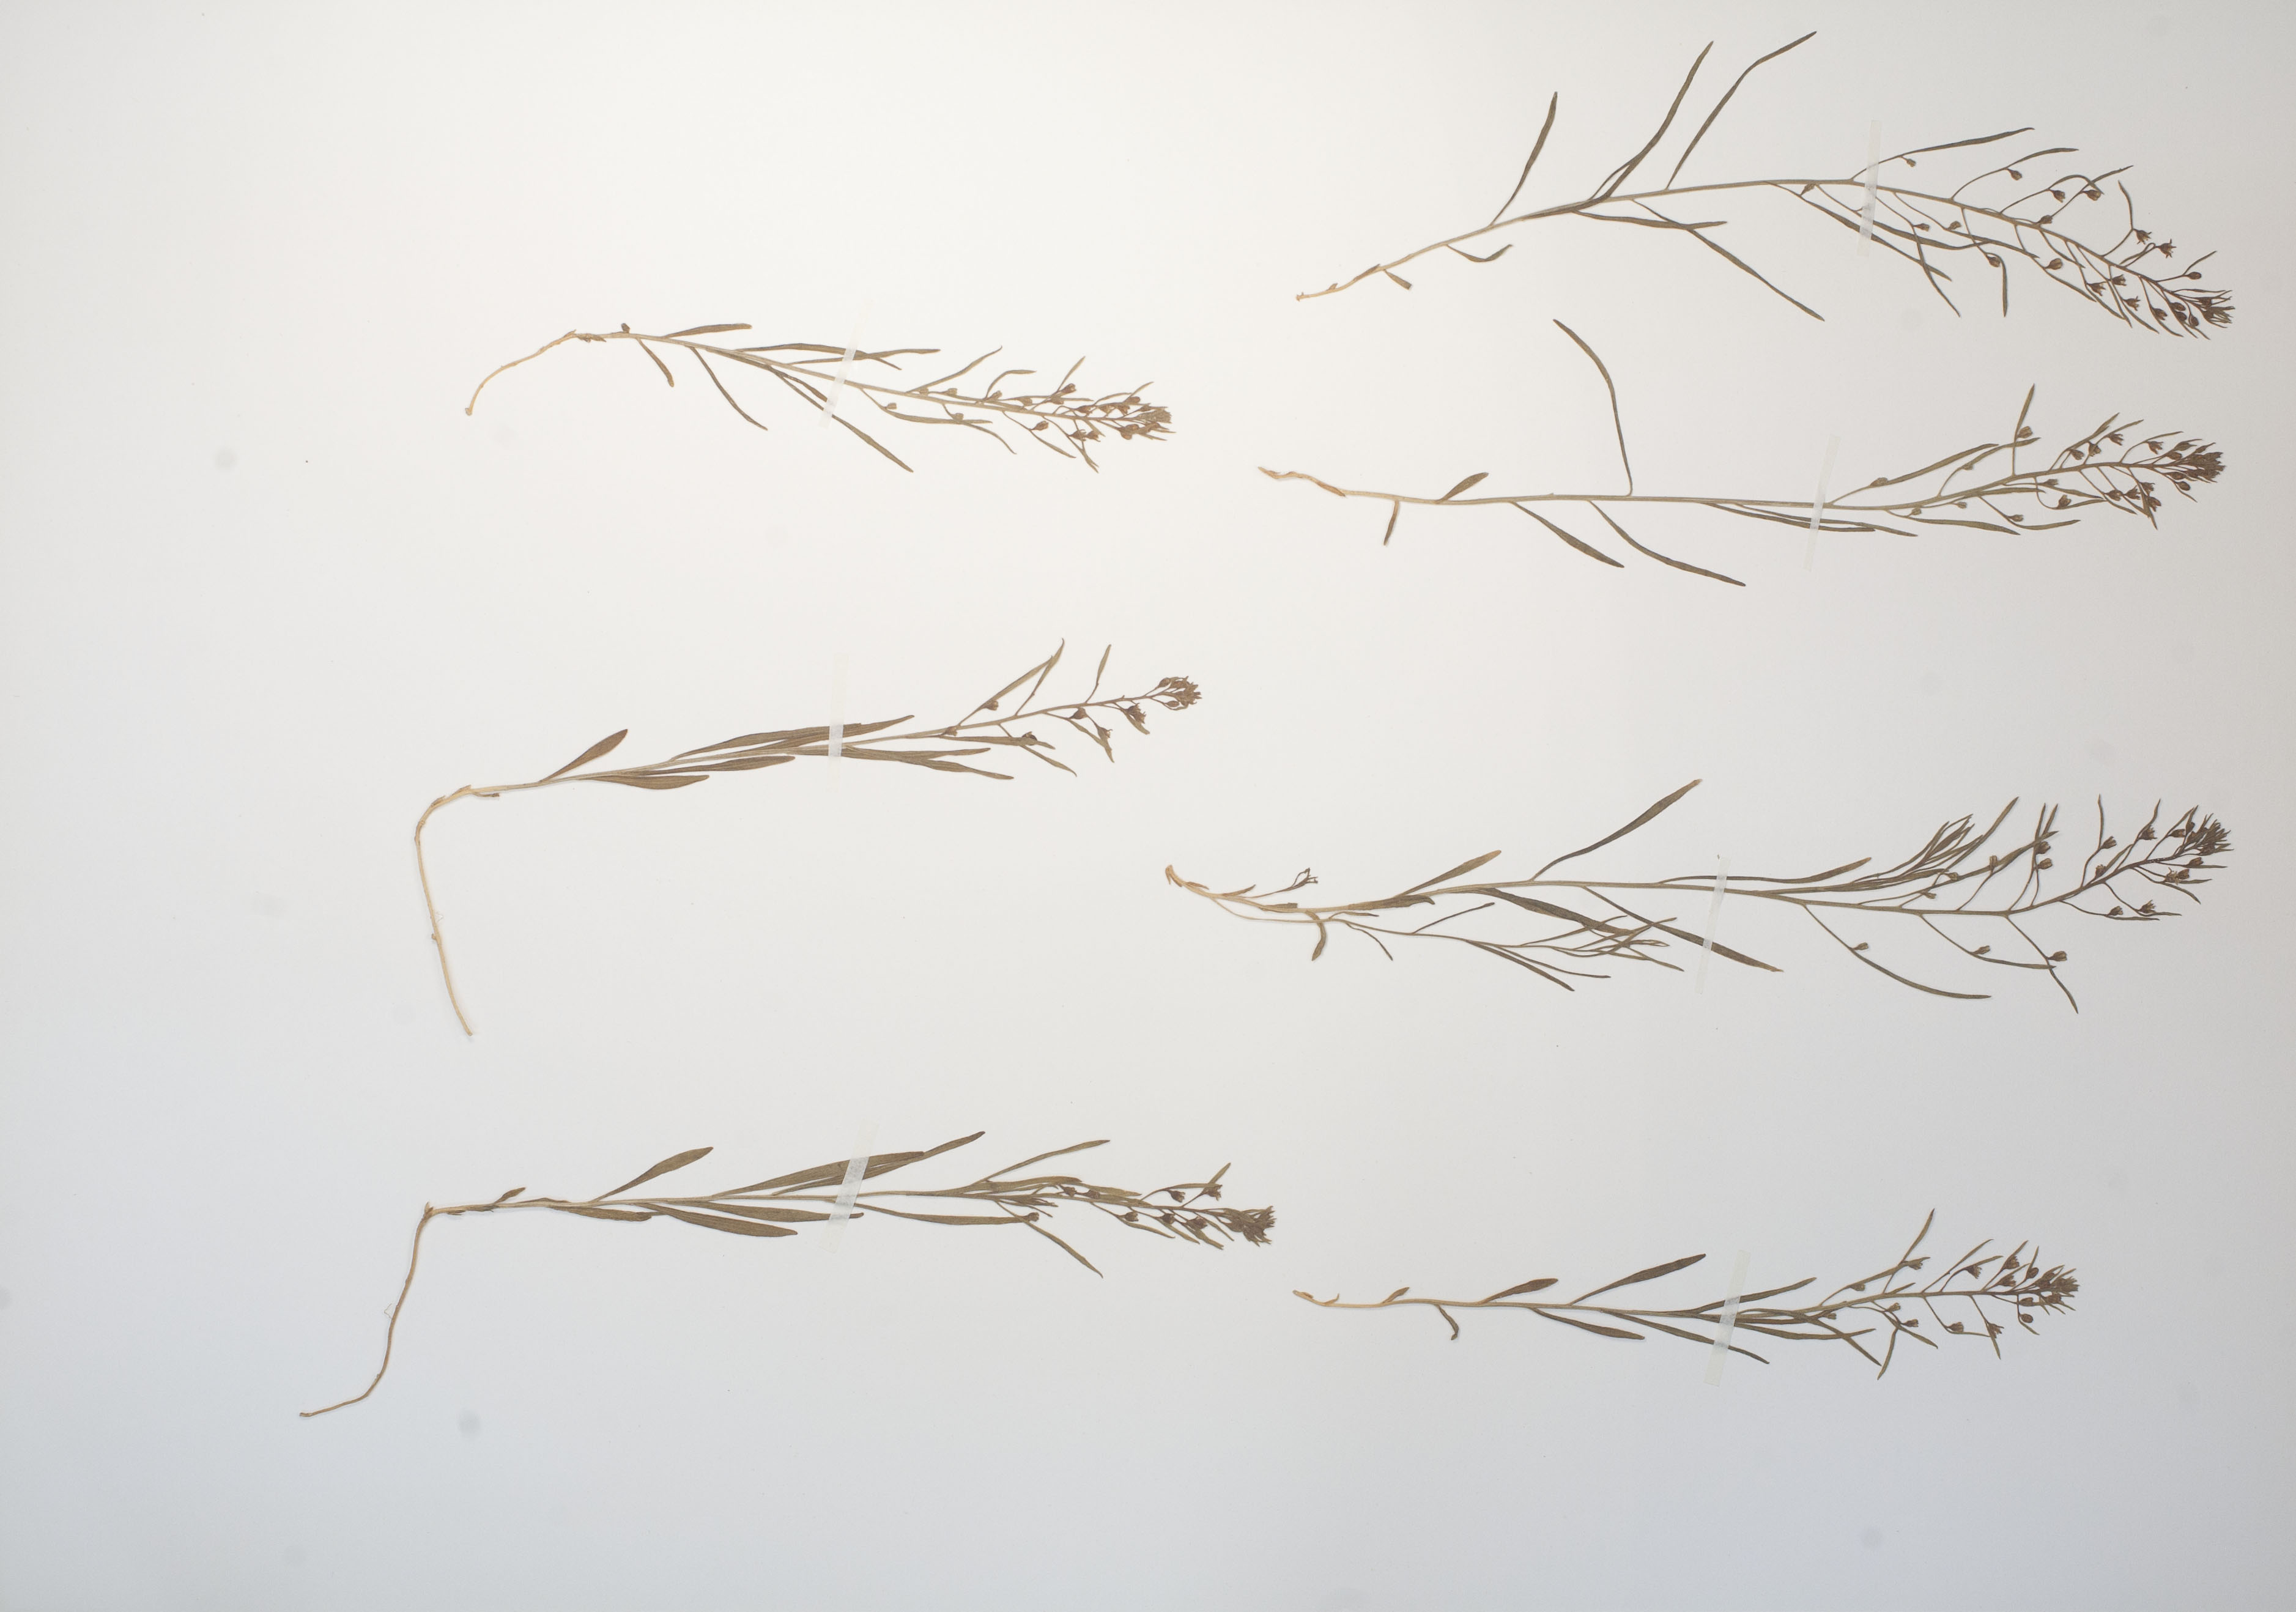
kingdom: Plantae
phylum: Tracheophyta
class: Magnoliopsida
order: Santalales
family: Thesiaceae
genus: Thesium
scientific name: Thesium ebracteatum
